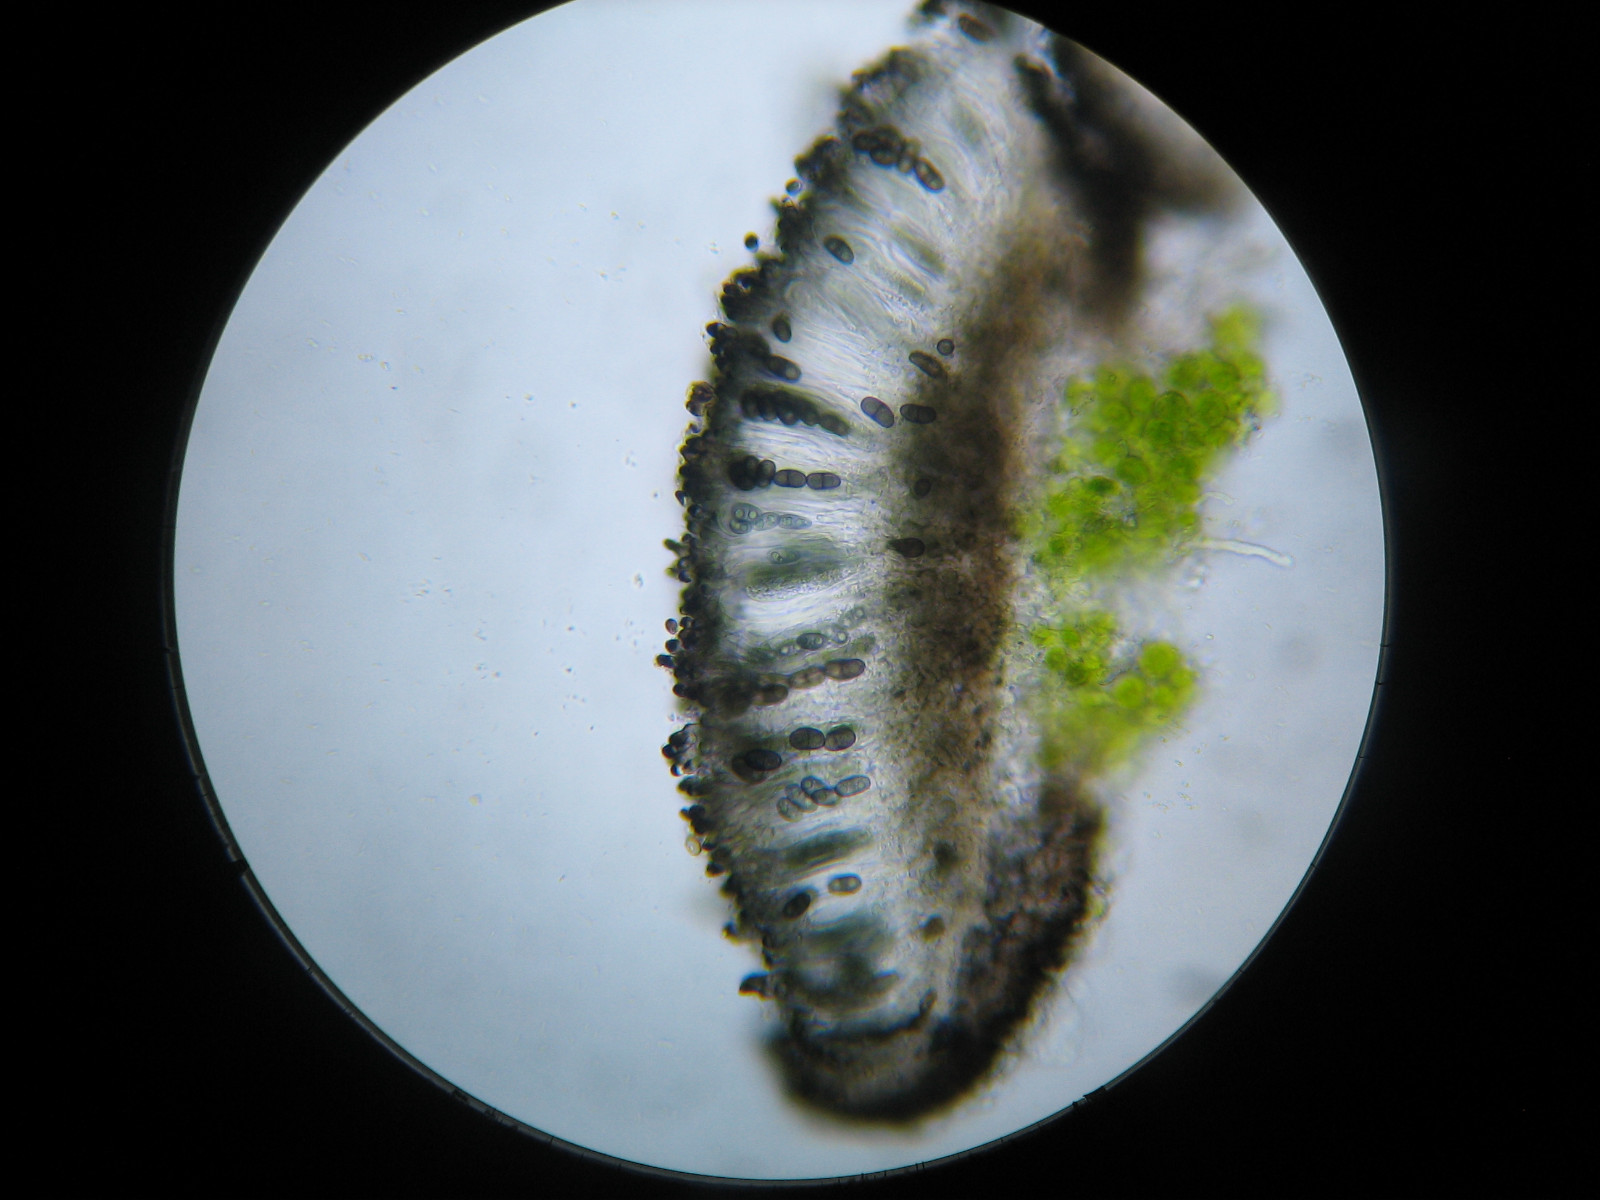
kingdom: Fungi
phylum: Ascomycota
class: Lecanoromycetes
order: Caliciales
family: Caliciaceae
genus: Amandinea
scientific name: Amandinea punctata
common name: liden sortskivelav
